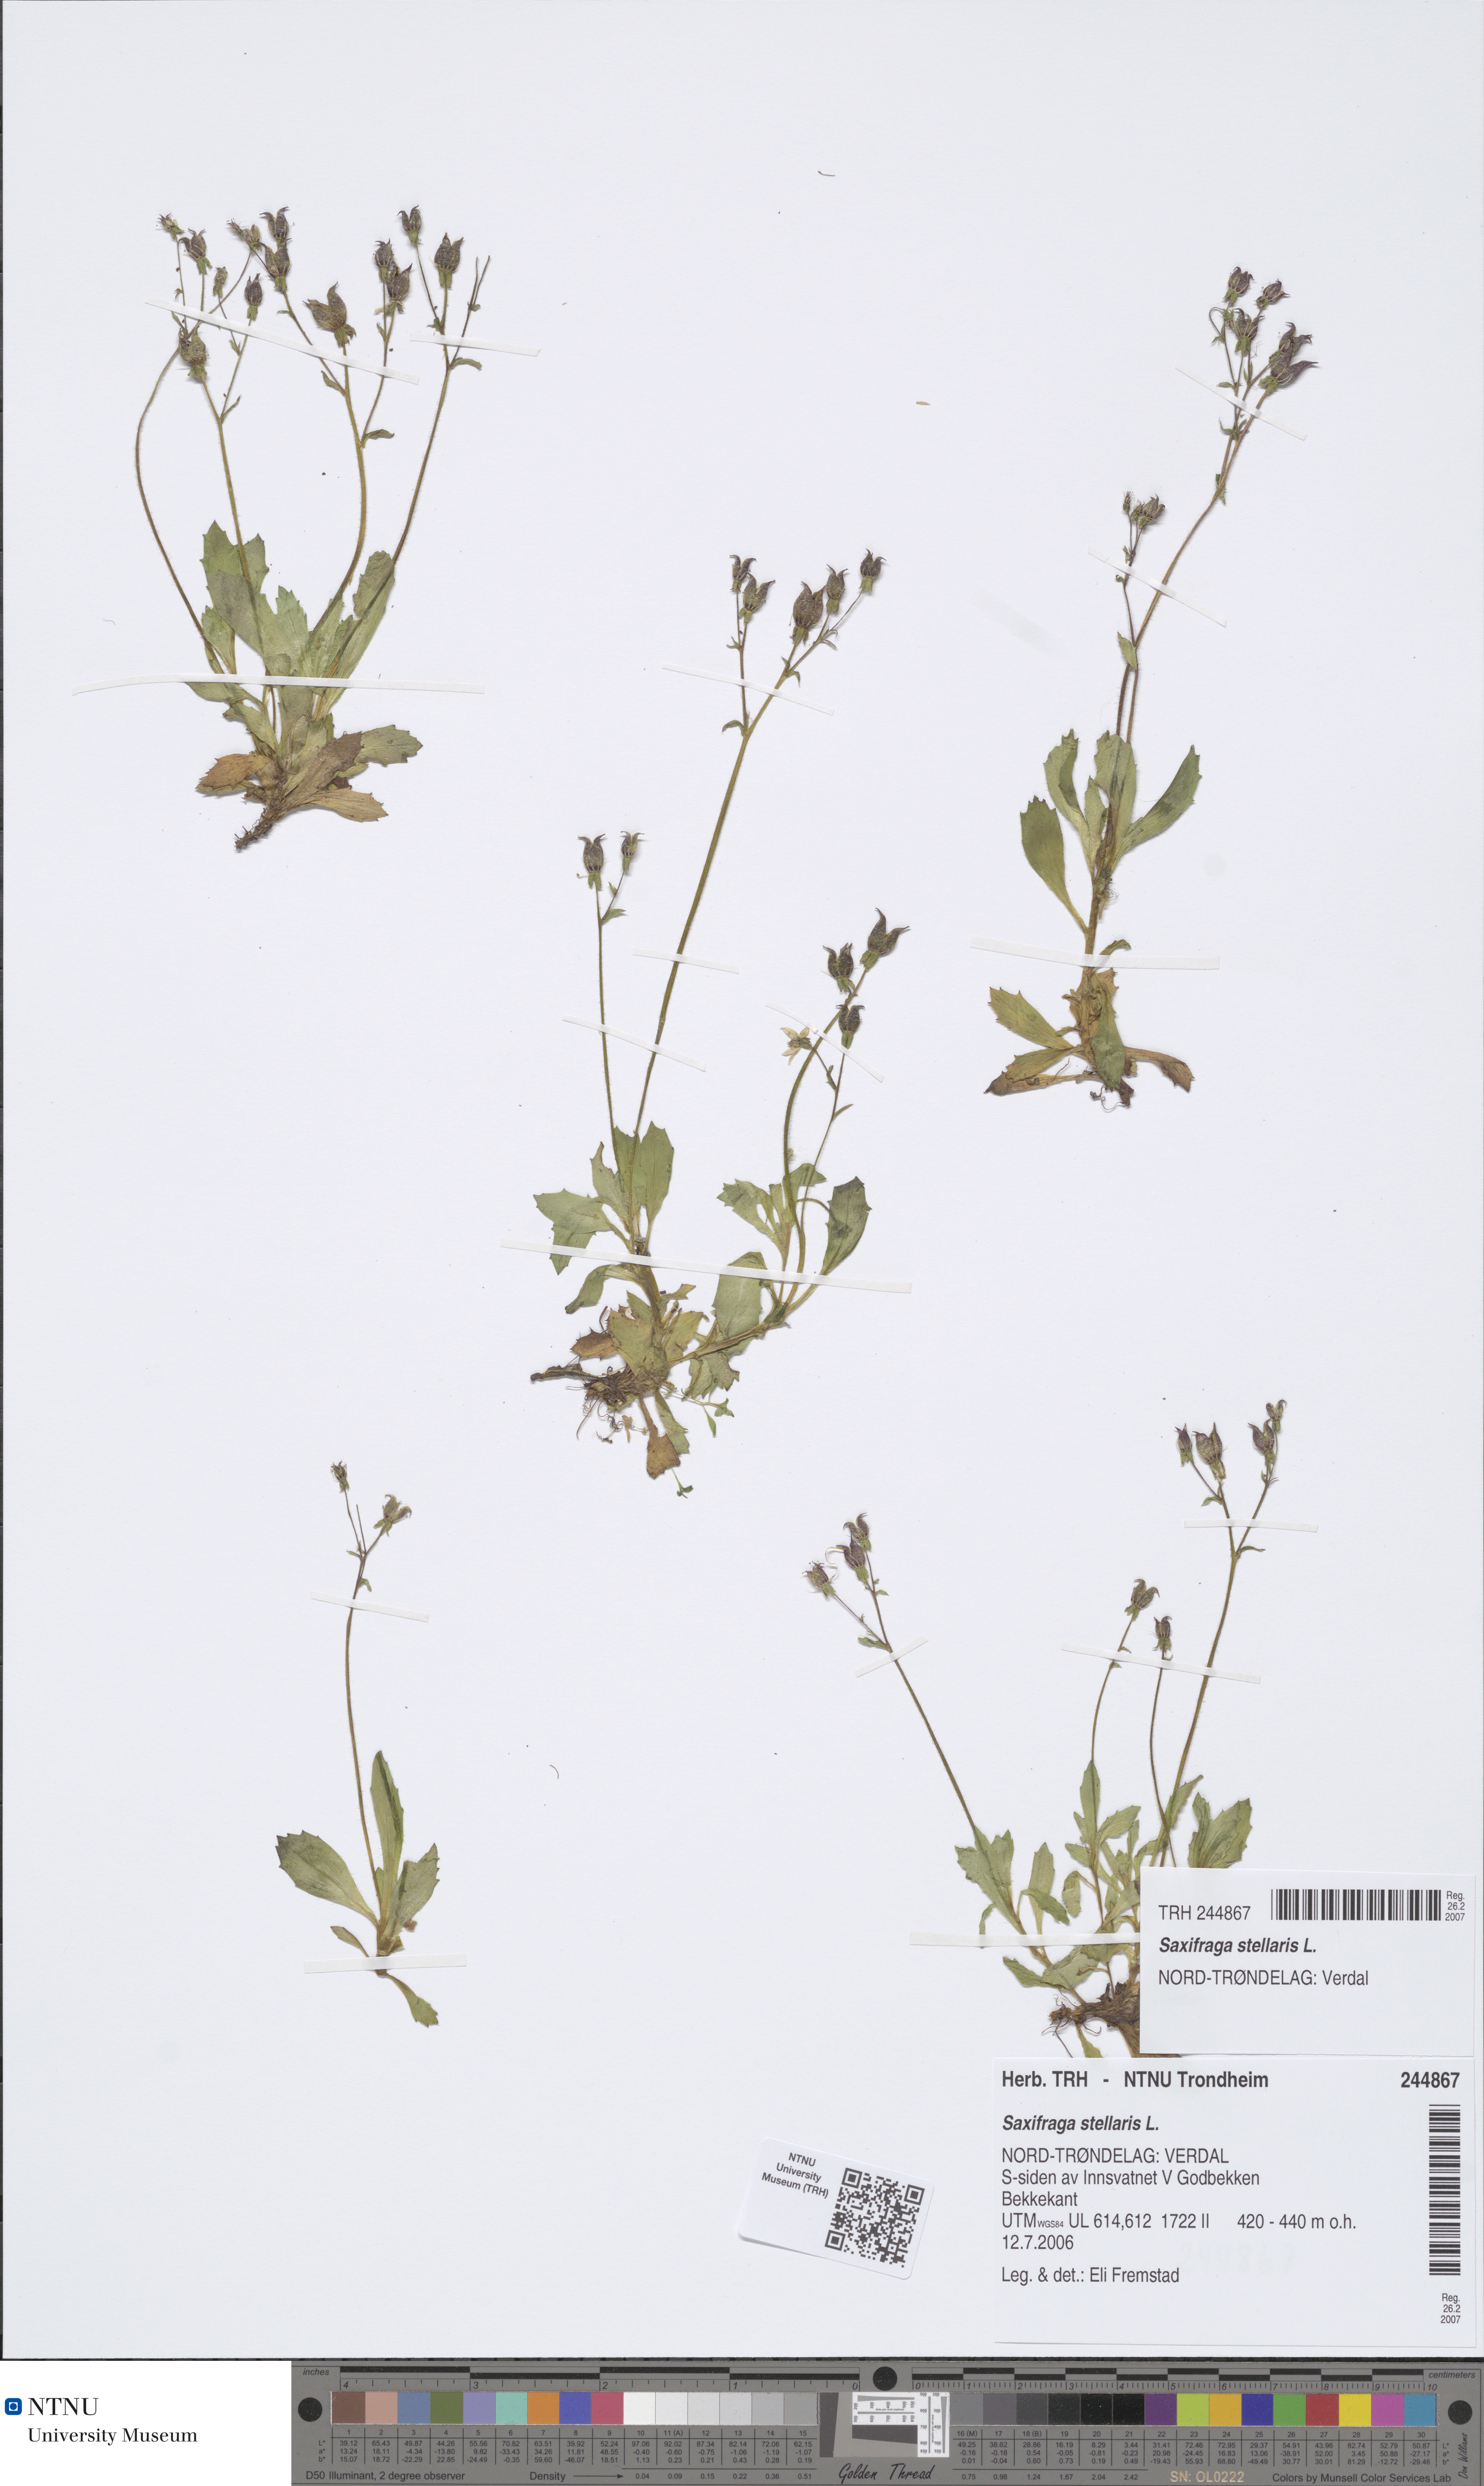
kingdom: Plantae
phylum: Tracheophyta
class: Magnoliopsida
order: Saxifragales
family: Saxifragaceae
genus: Micranthes
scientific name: Micranthes stellaris
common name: Starry saxifrage
